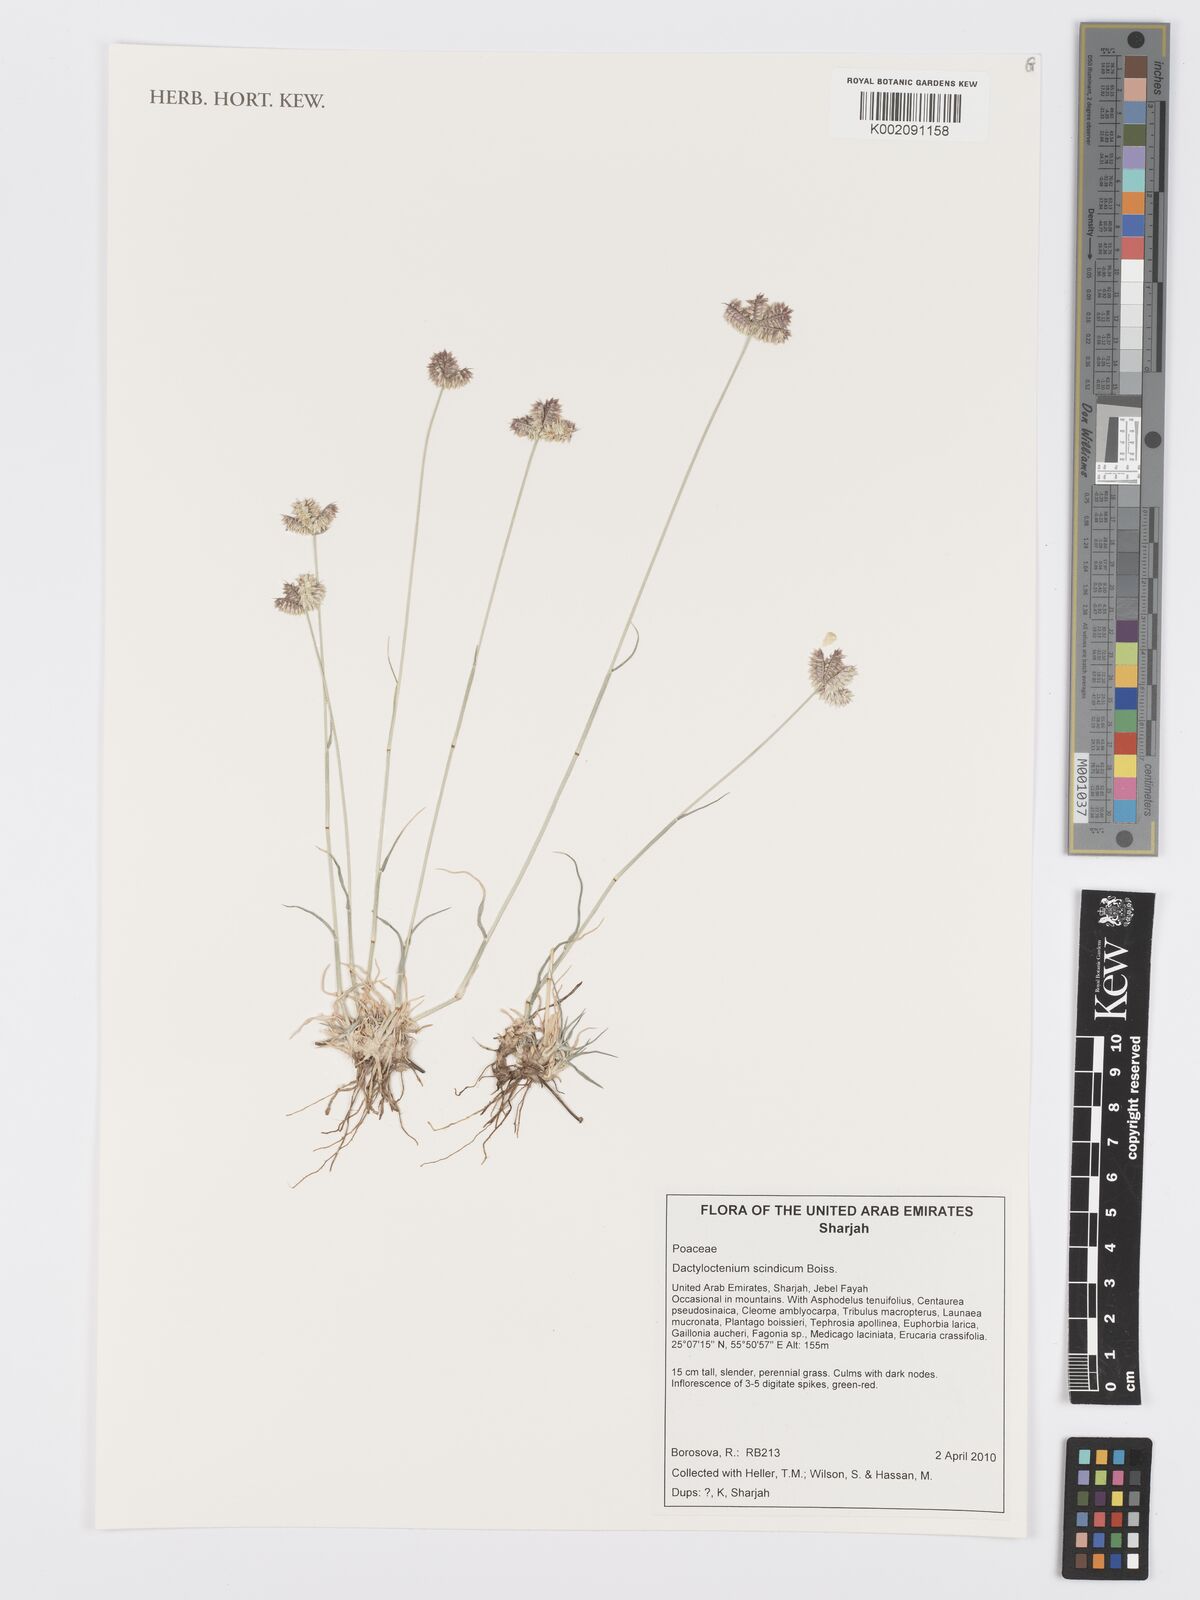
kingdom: Plantae
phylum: Tracheophyta
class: Liliopsida
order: Poales
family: Poaceae
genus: Dactyloctenium
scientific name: Dactyloctenium scindicum
